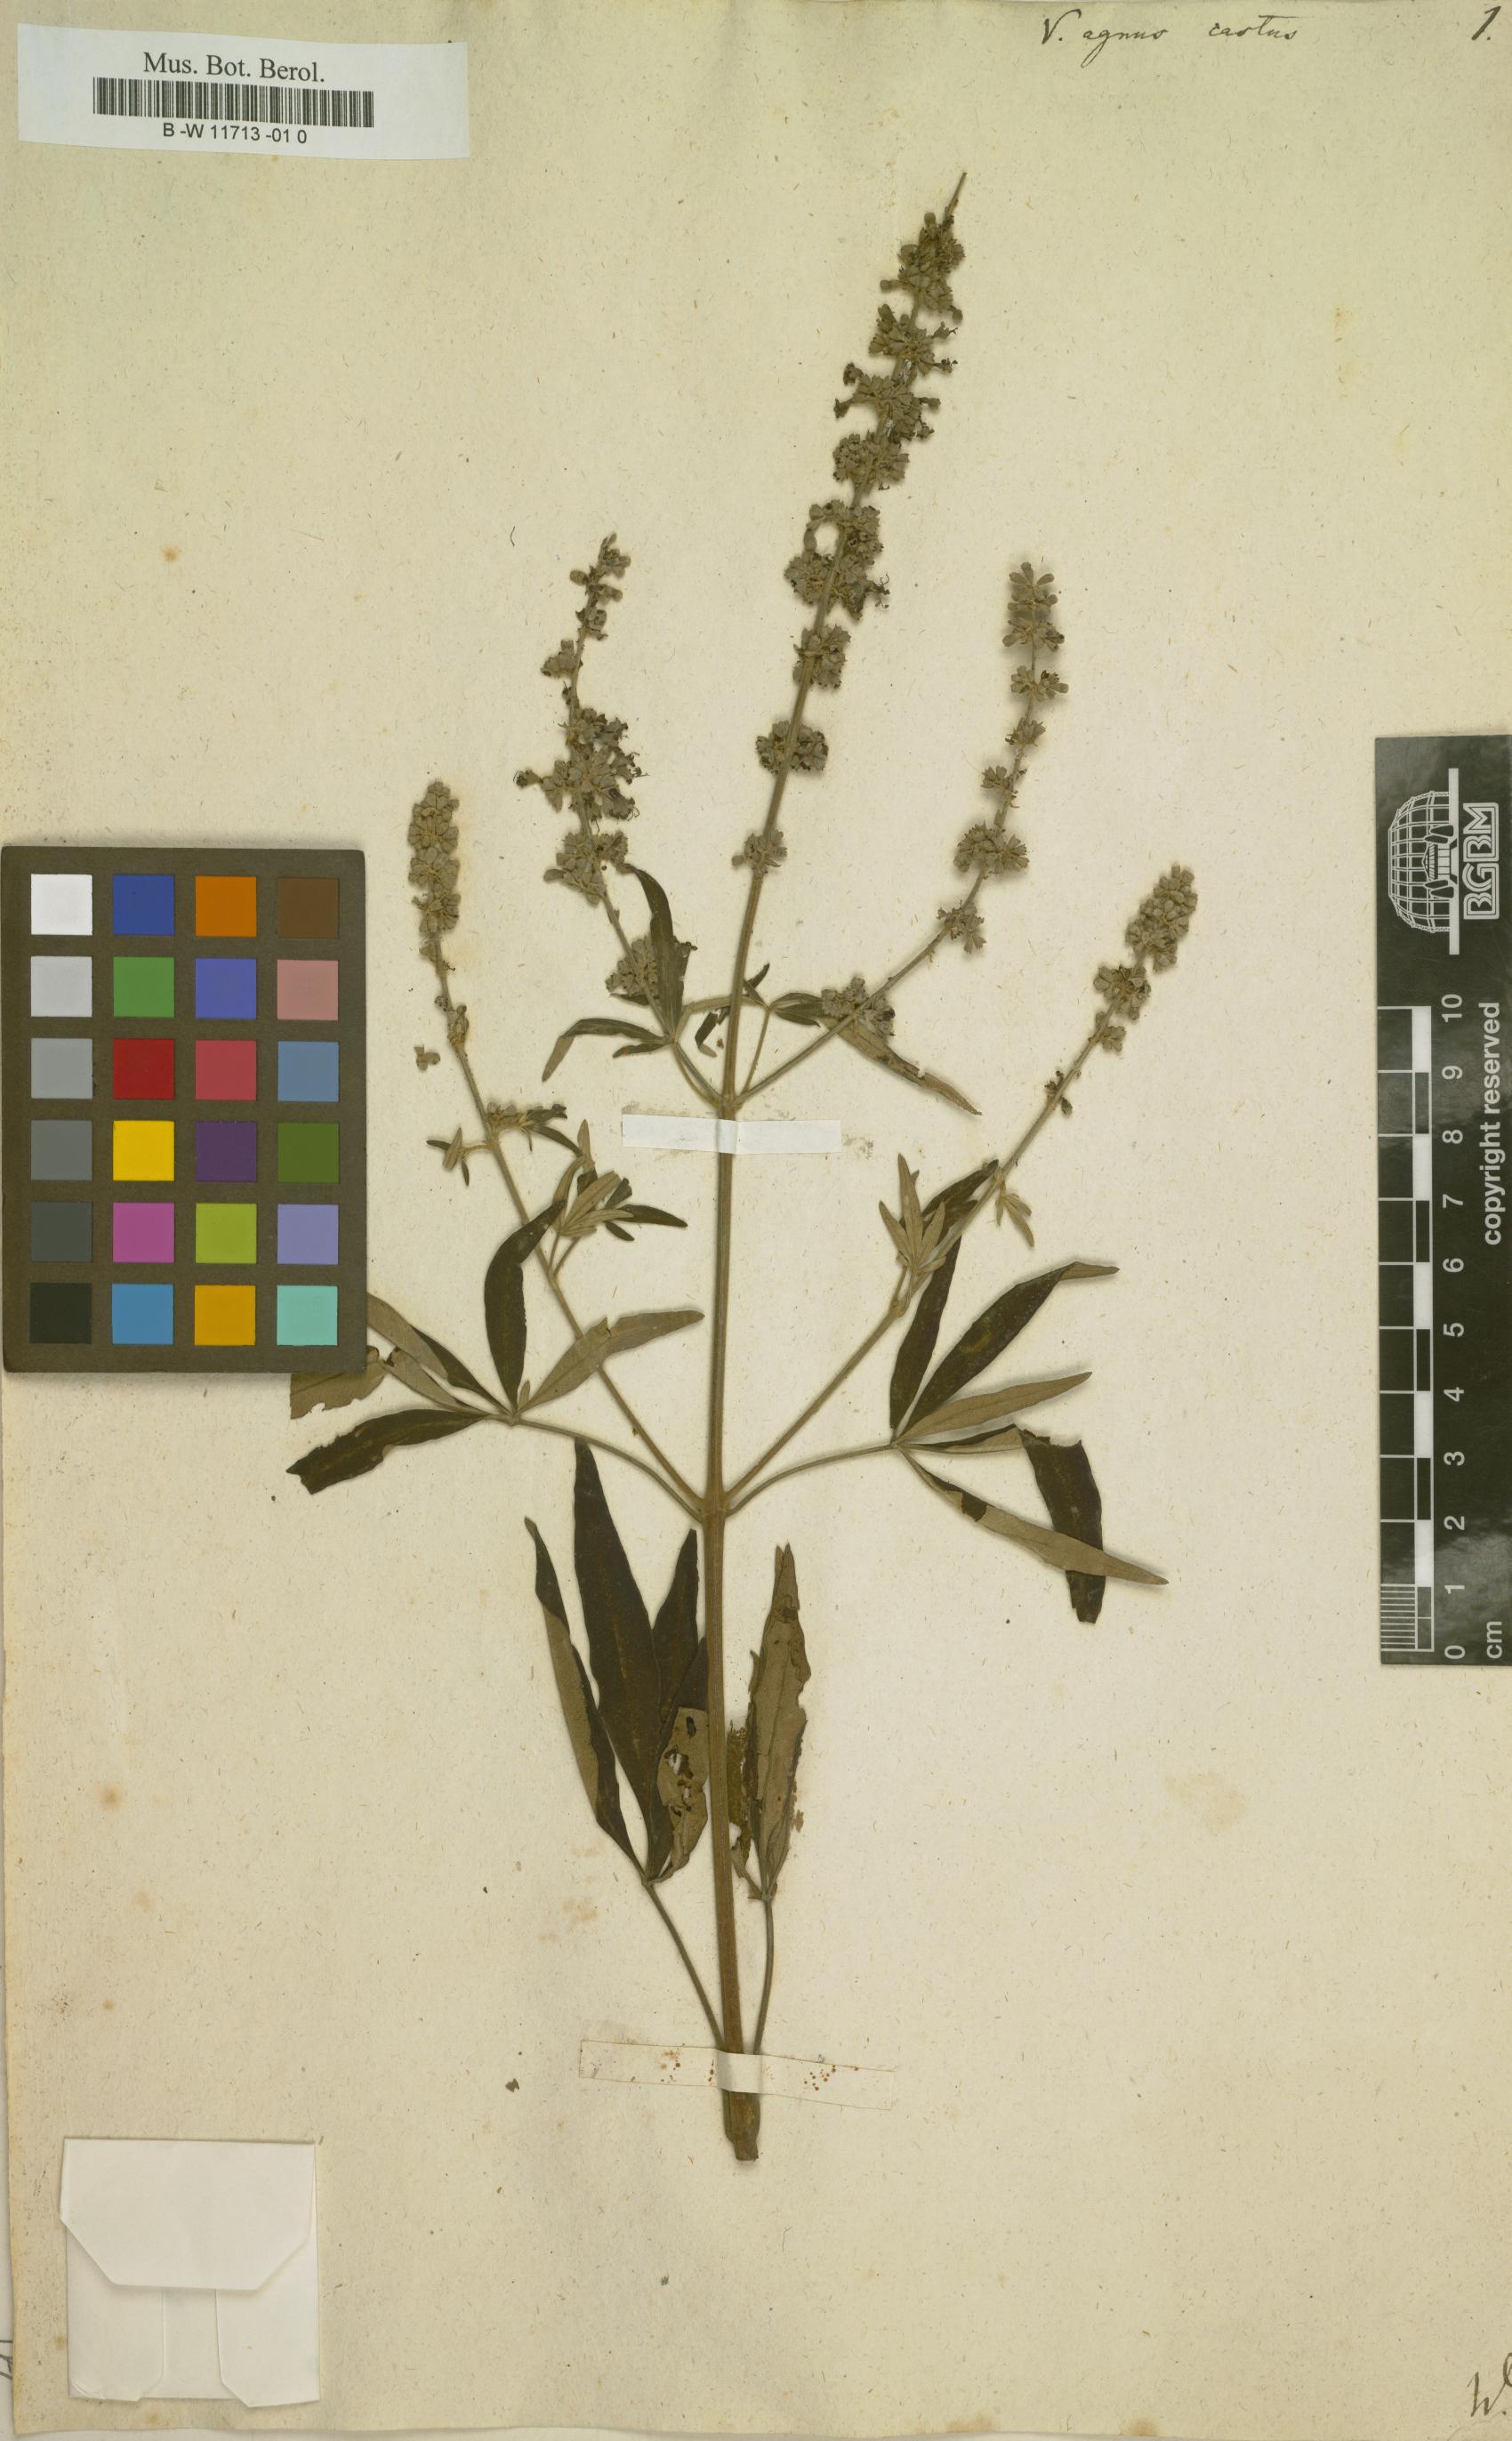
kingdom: Plantae
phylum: Tracheophyta
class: Magnoliopsida
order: Lamiales
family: Lamiaceae
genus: Vitex
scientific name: Vitex agnus-castus
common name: Chasteberry
